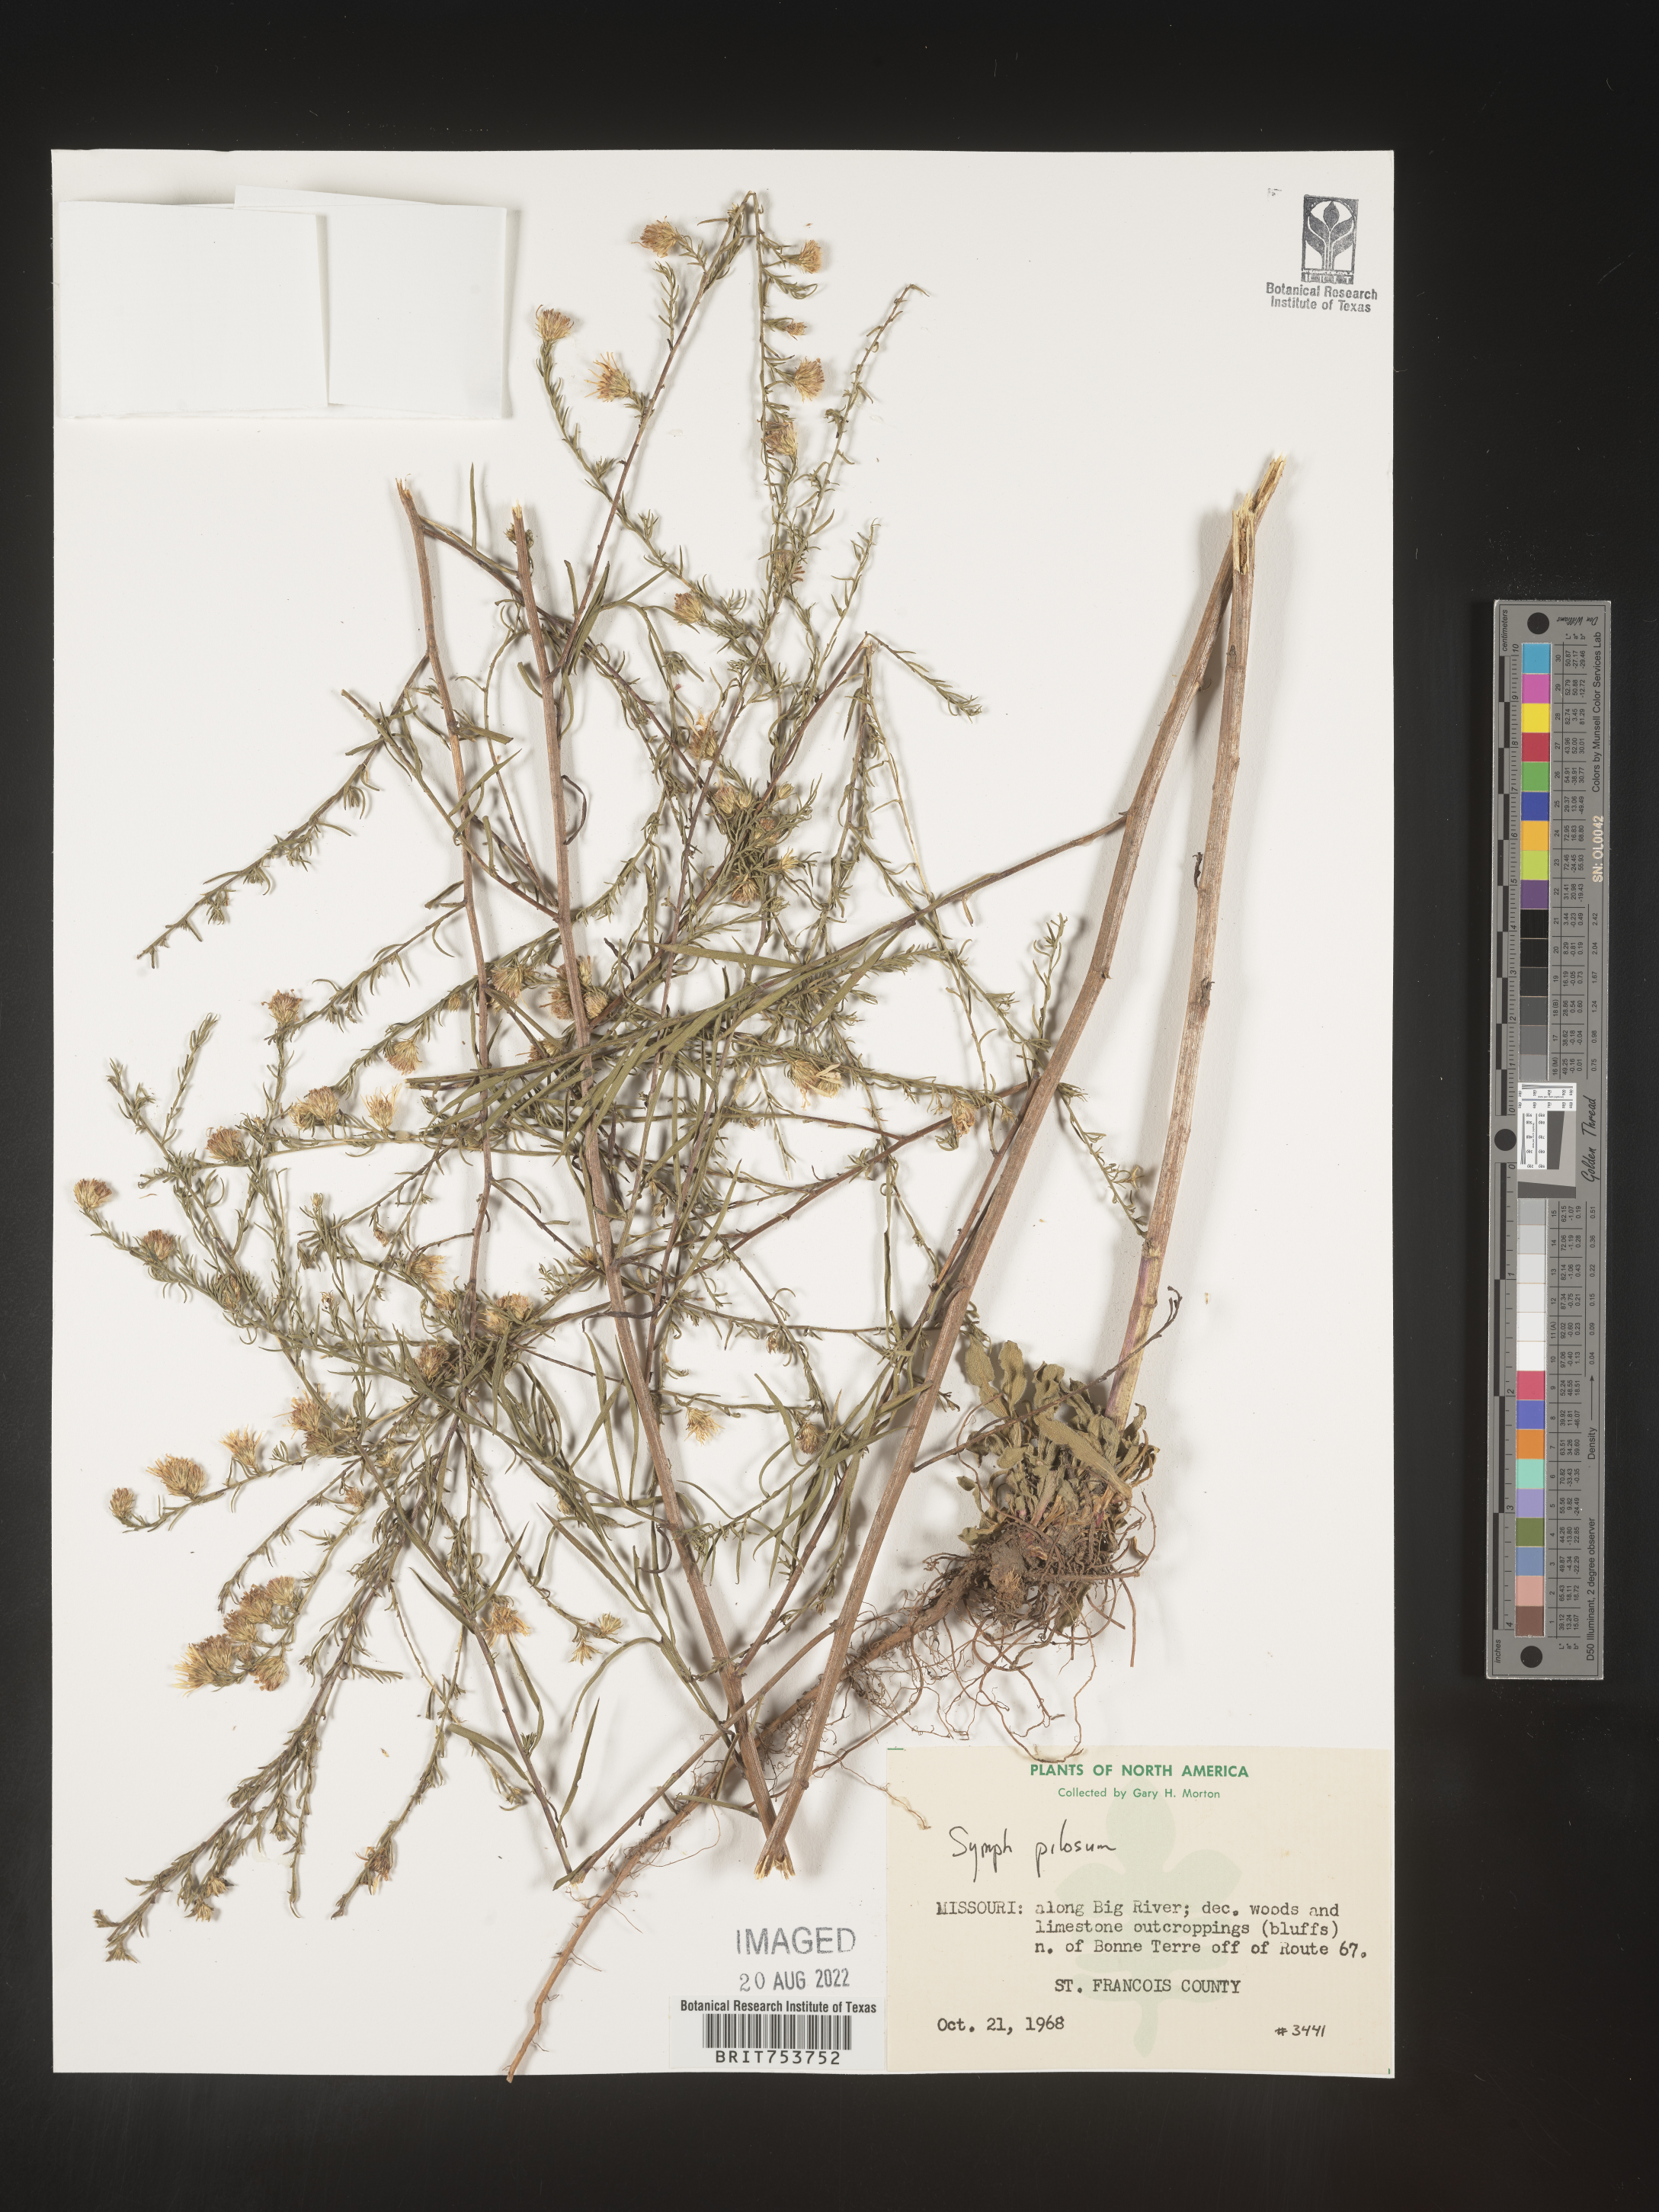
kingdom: Plantae
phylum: Tracheophyta
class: Magnoliopsida
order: Asterales
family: Asteraceae
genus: Symphyotrichum
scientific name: Symphyotrichum pilosum
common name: Awl aster
